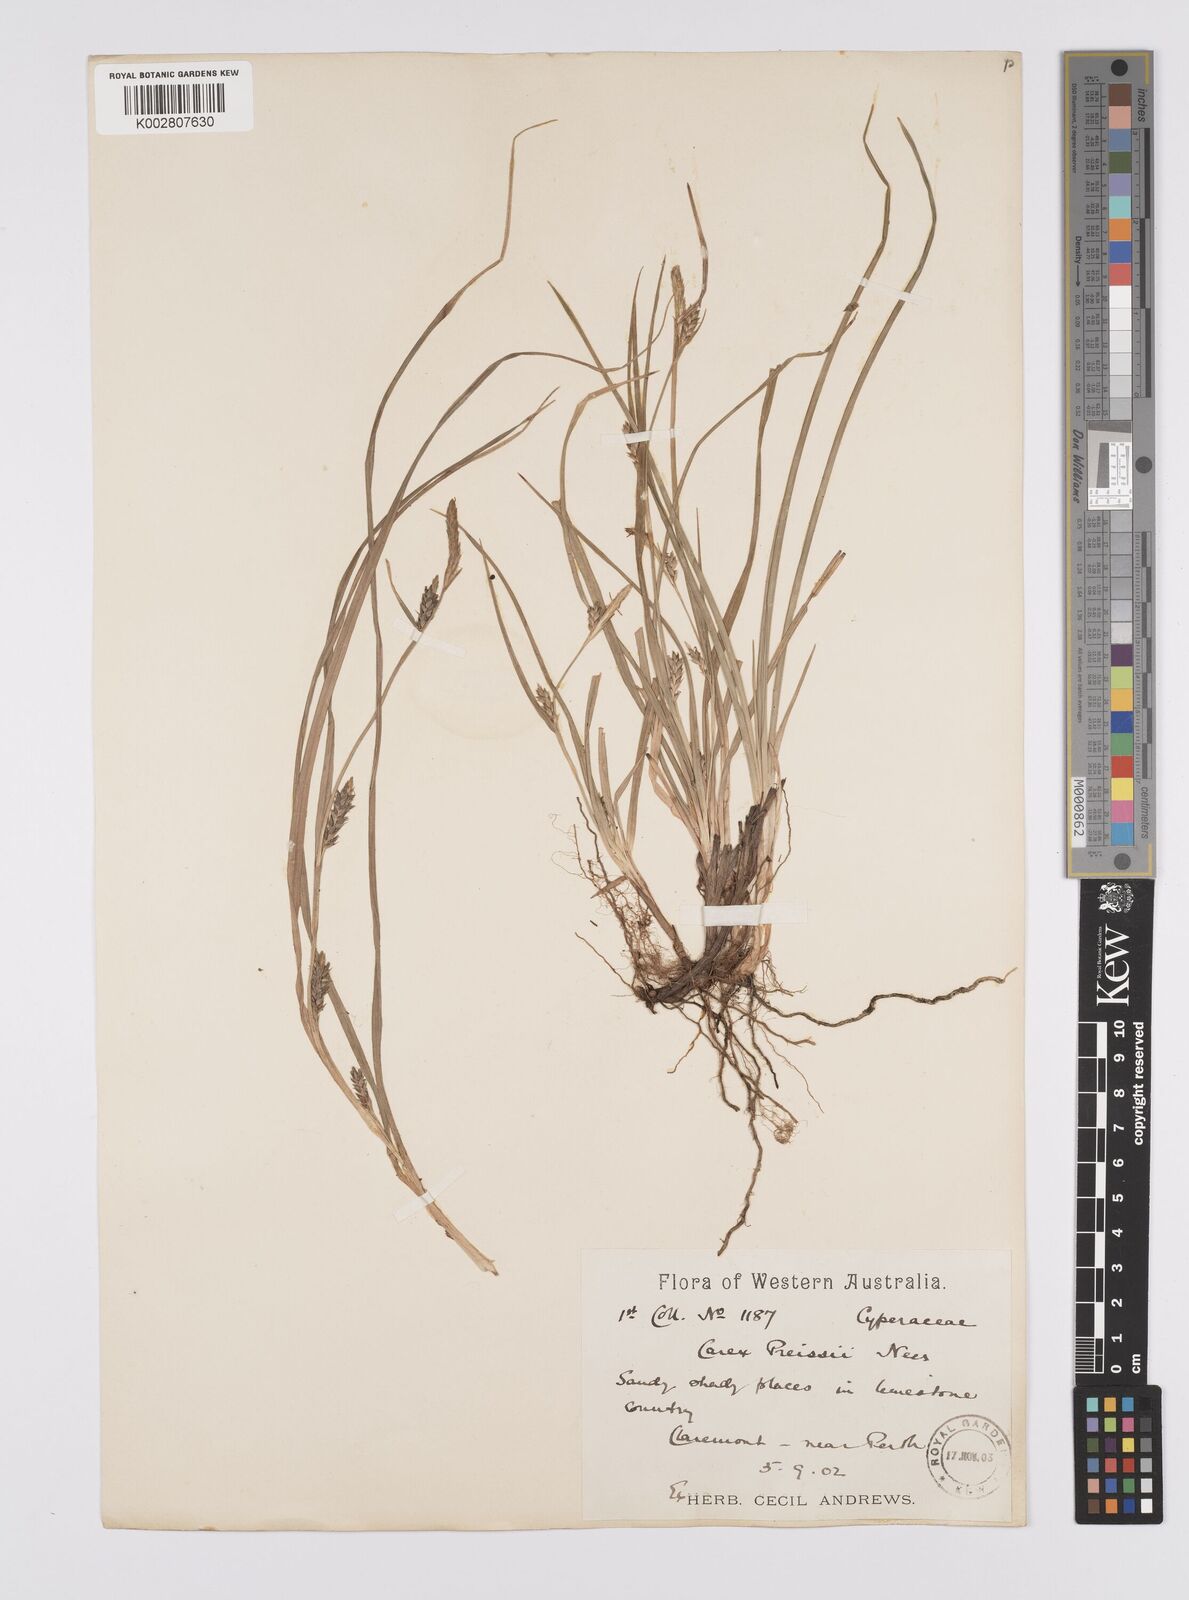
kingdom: Plantae
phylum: Tracheophyta
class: Liliopsida
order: Poales
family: Cyperaceae
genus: Carex
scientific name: Carex preissii
